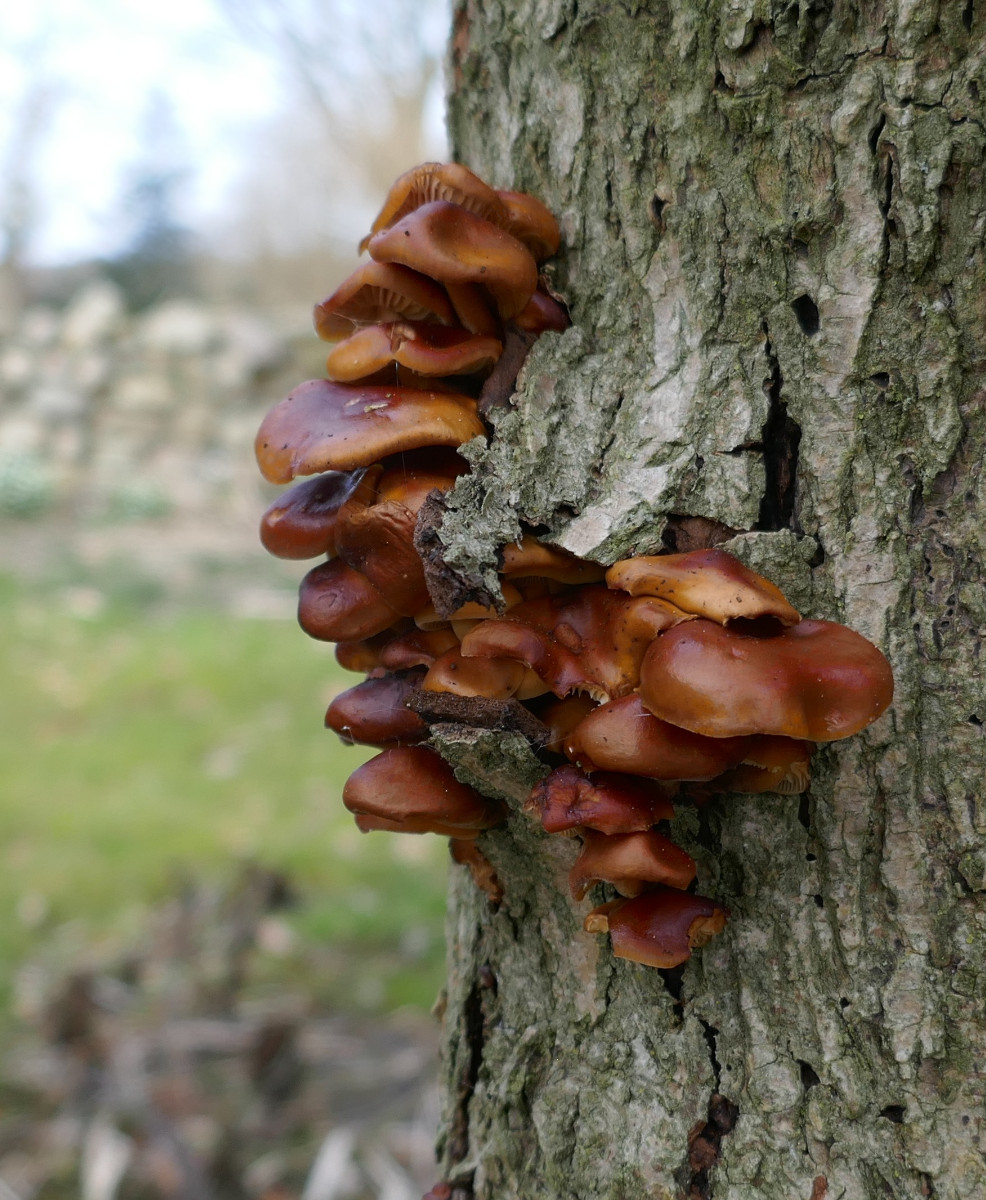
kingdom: Fungi
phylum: Basidiomycota
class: Agaricomycetes
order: Agaricales
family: Physalacriaceae
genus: Flammulina
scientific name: Flammulina velutipes
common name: gul fløjlsfod
